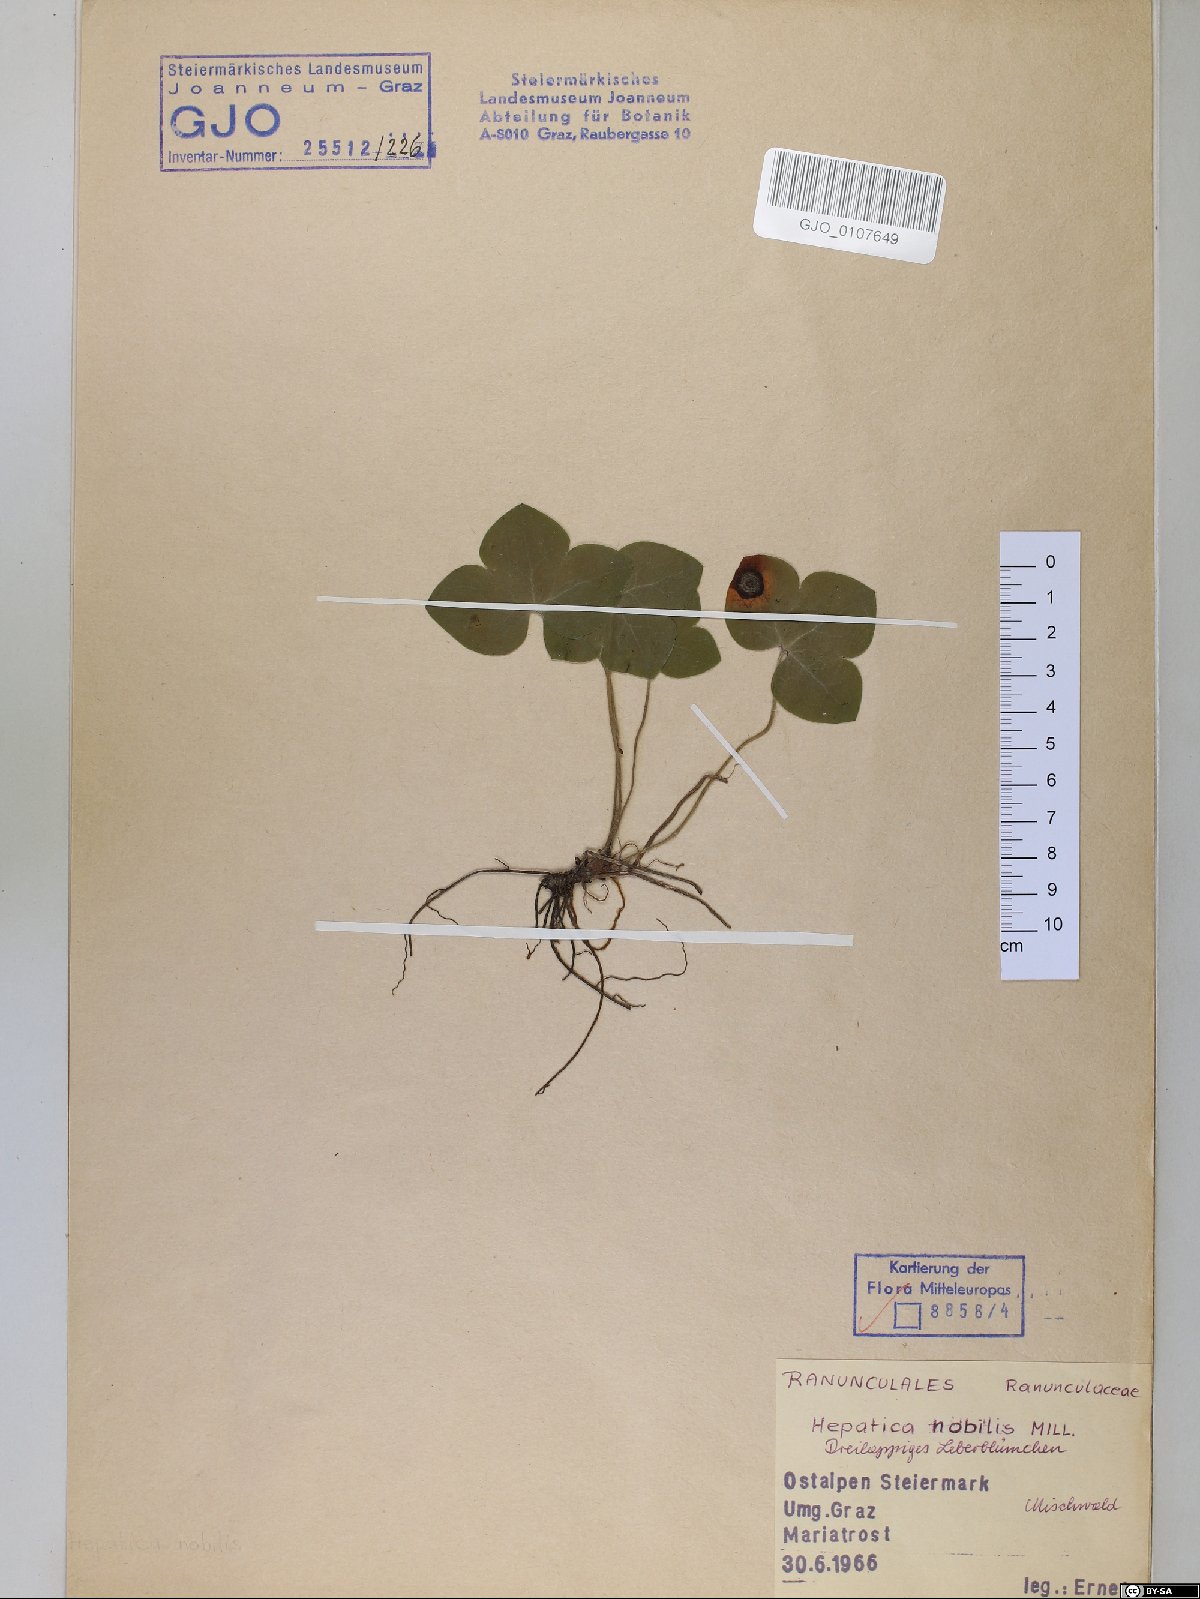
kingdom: Plantae
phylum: Tracheophyta
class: Magnoliopsida
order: Ranunculales
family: Ranunculaceae
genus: Hepatica
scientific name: Hepatica nobilis
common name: Liverleaf
